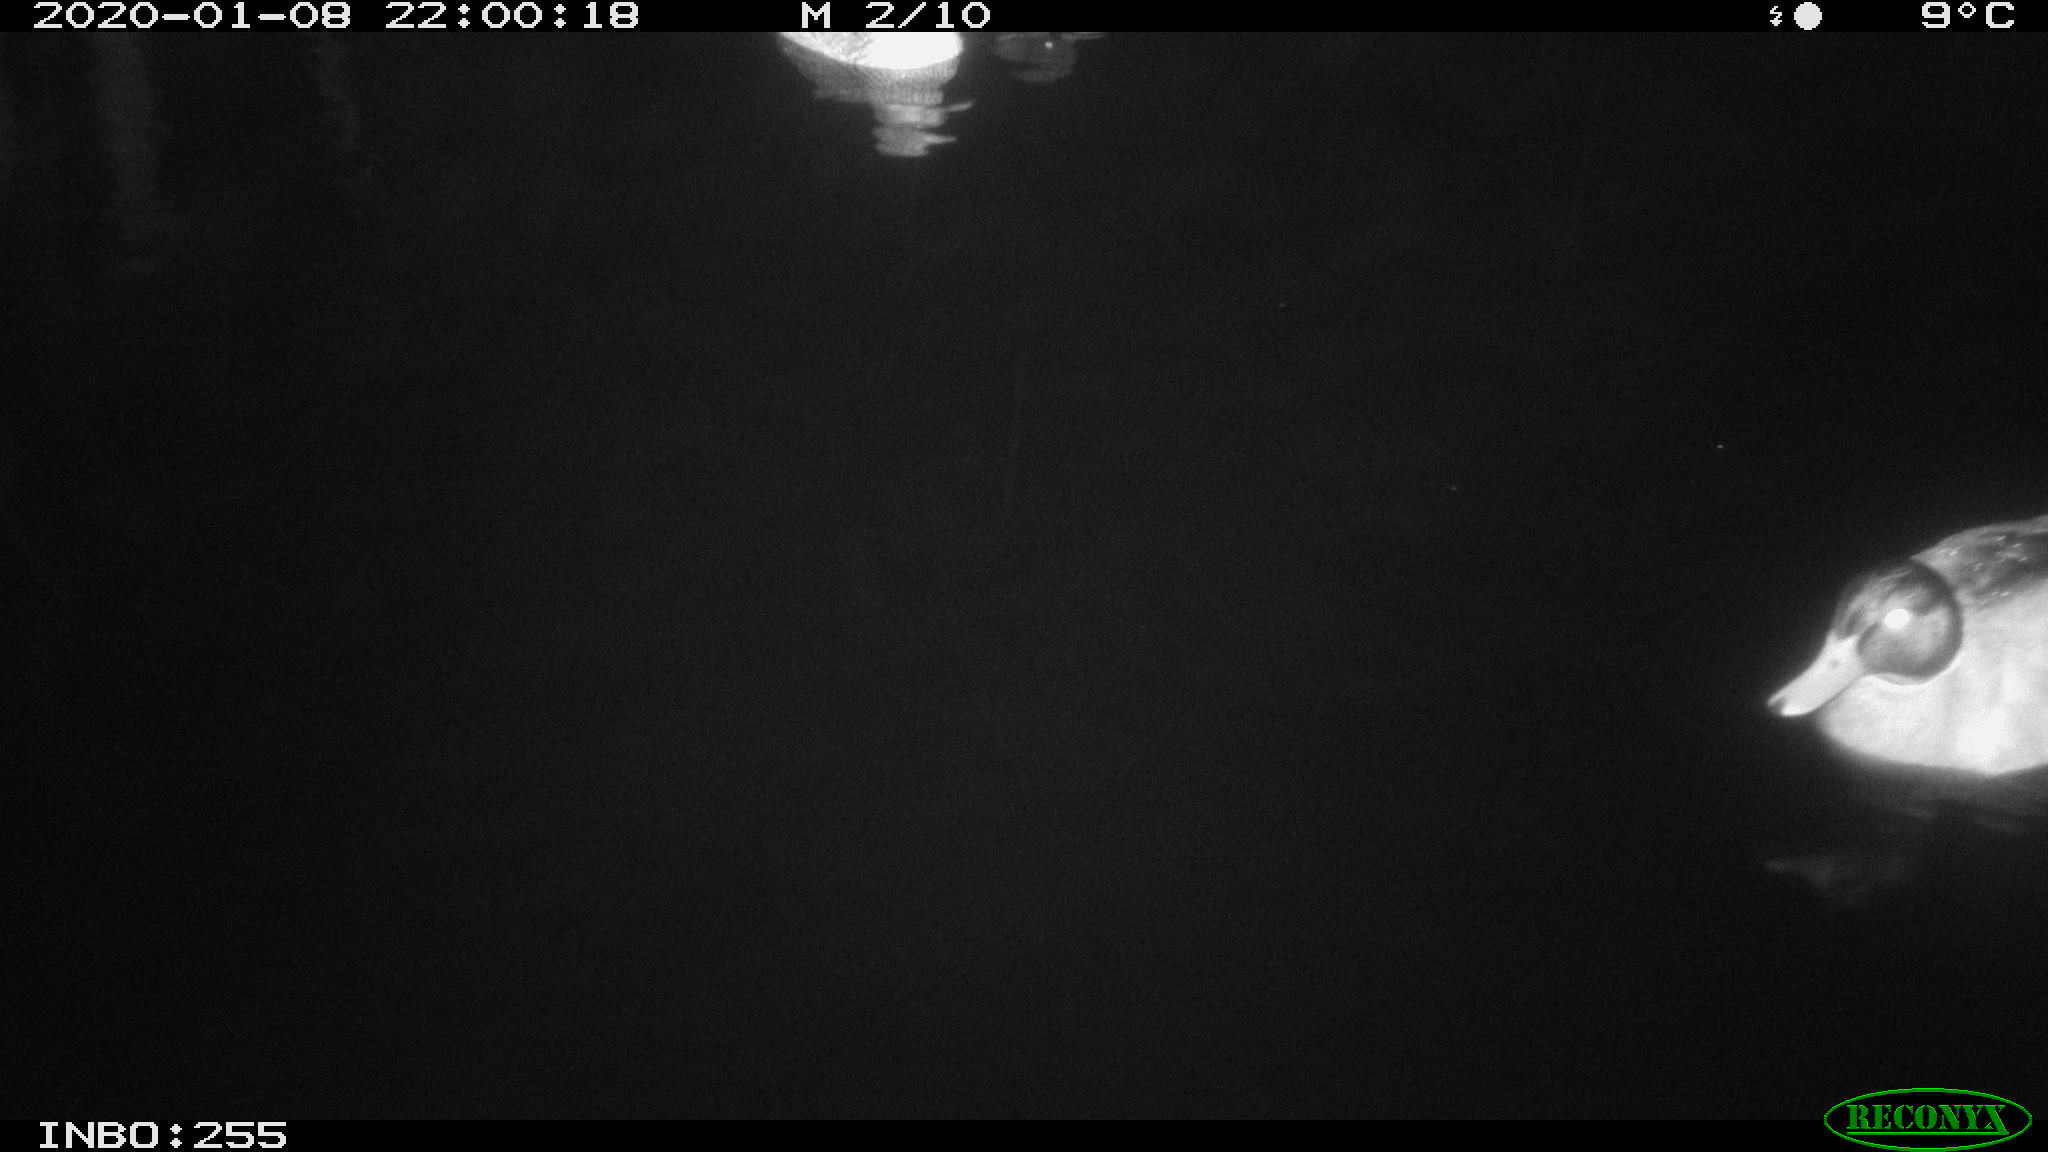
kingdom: Animalia
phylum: Chordata
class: Aves
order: Anseriformes
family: Anatidae
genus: Anas
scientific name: Anas platyrhynchos
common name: Mallard
